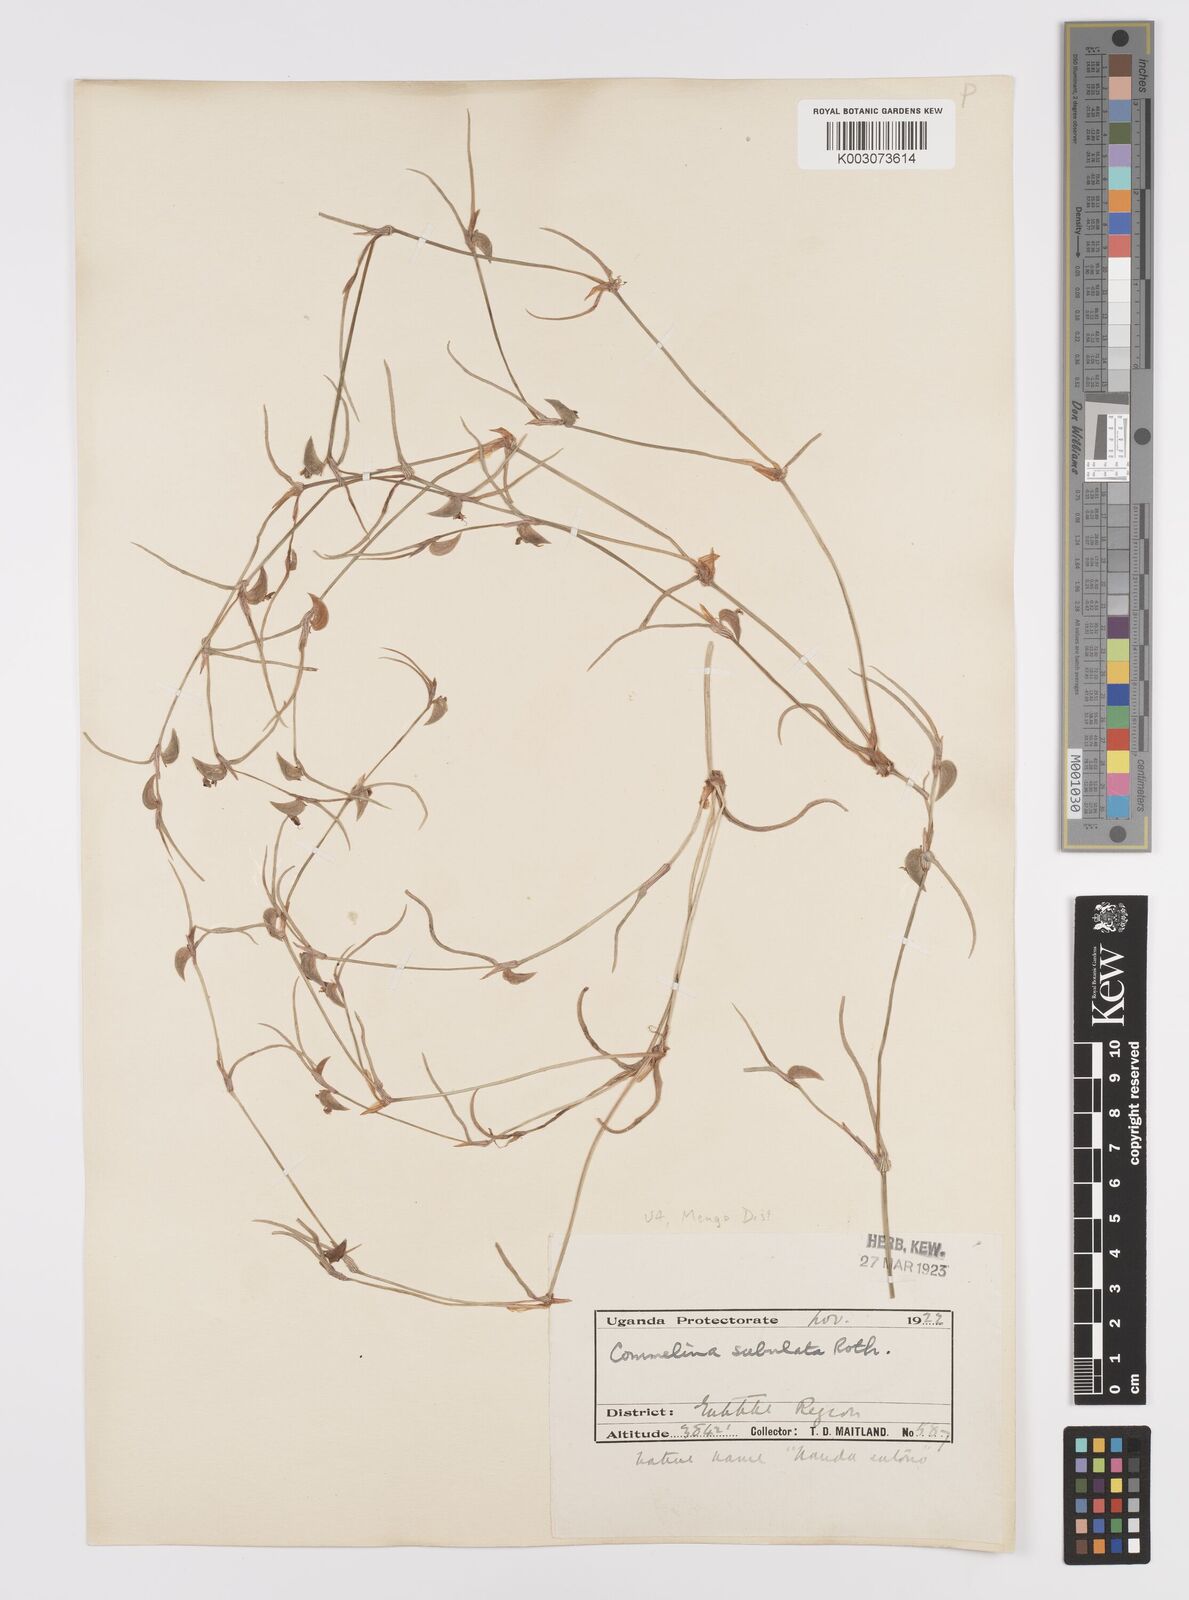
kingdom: Plantae
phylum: Tracheophyta
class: Liliopsida
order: Commelinales
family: Commelinaceae
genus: Commelina
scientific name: Commelina purpurea
